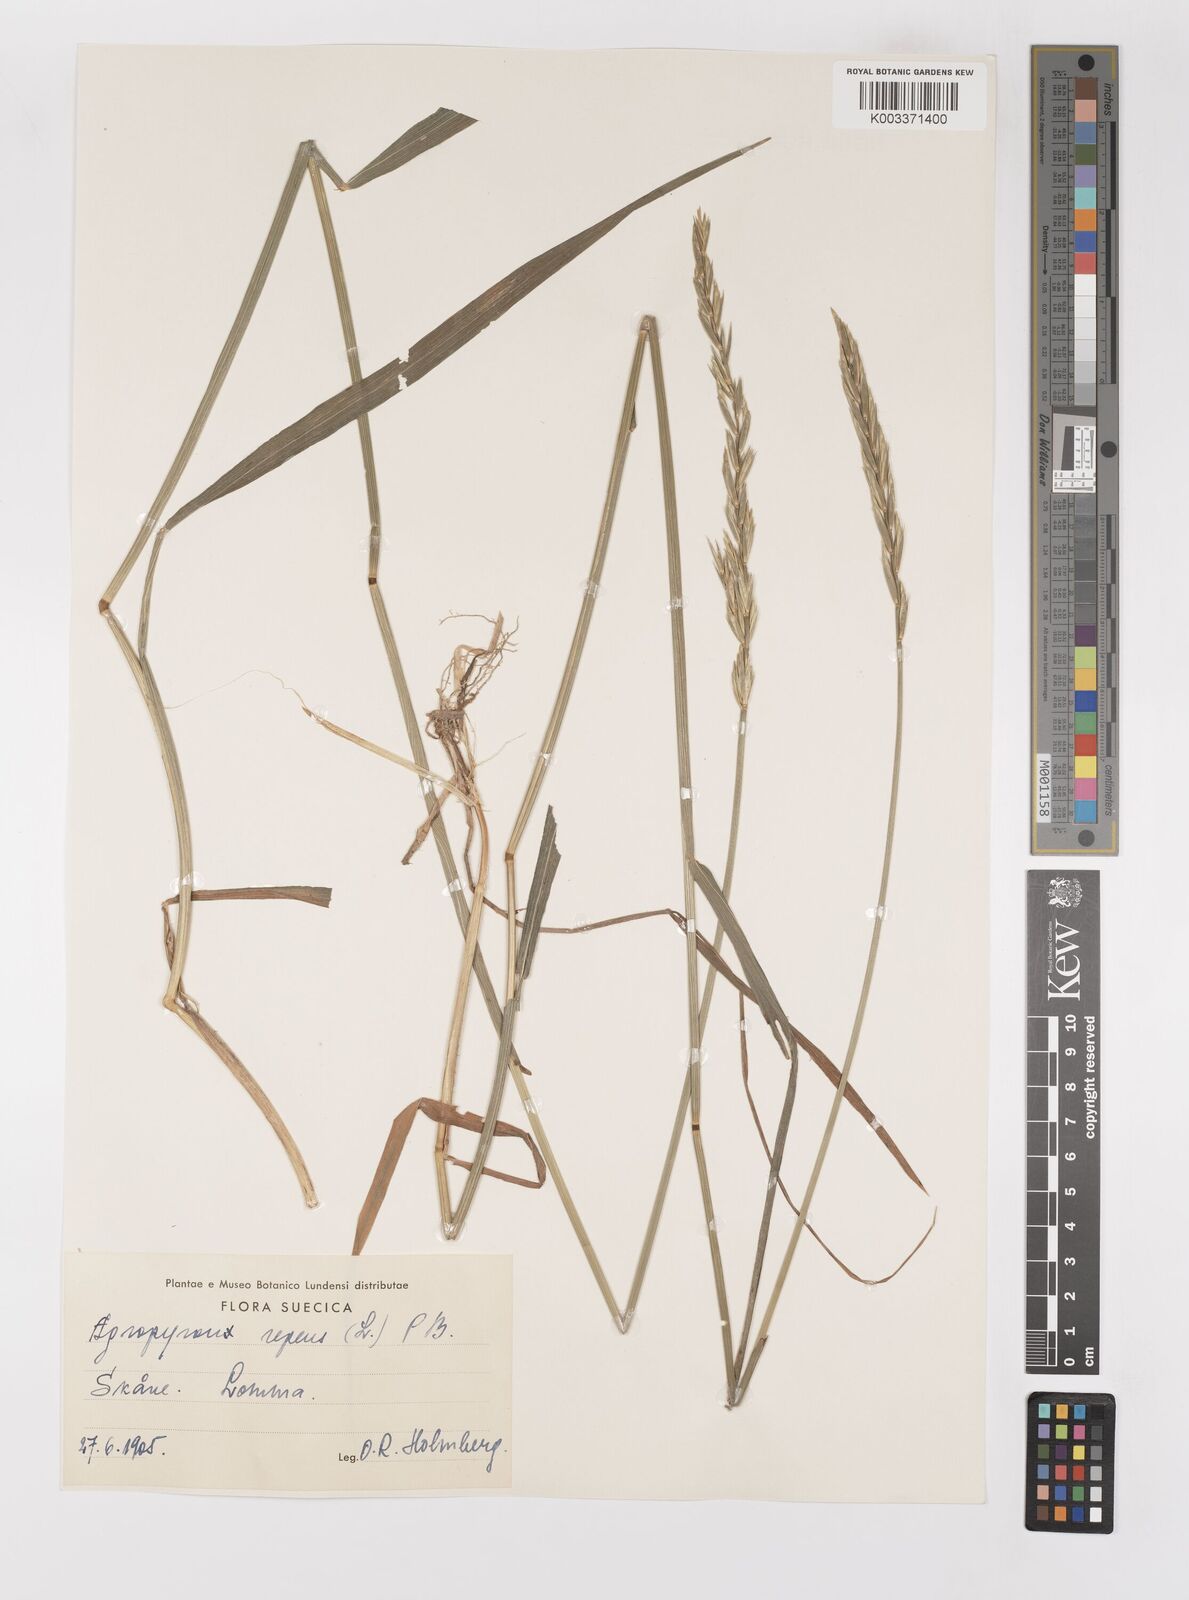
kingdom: Plantae
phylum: Tracheophyta
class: Liliopsida
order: Poales
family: Poaceae
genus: Elymus
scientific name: Elymus repens
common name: Quackgrass
